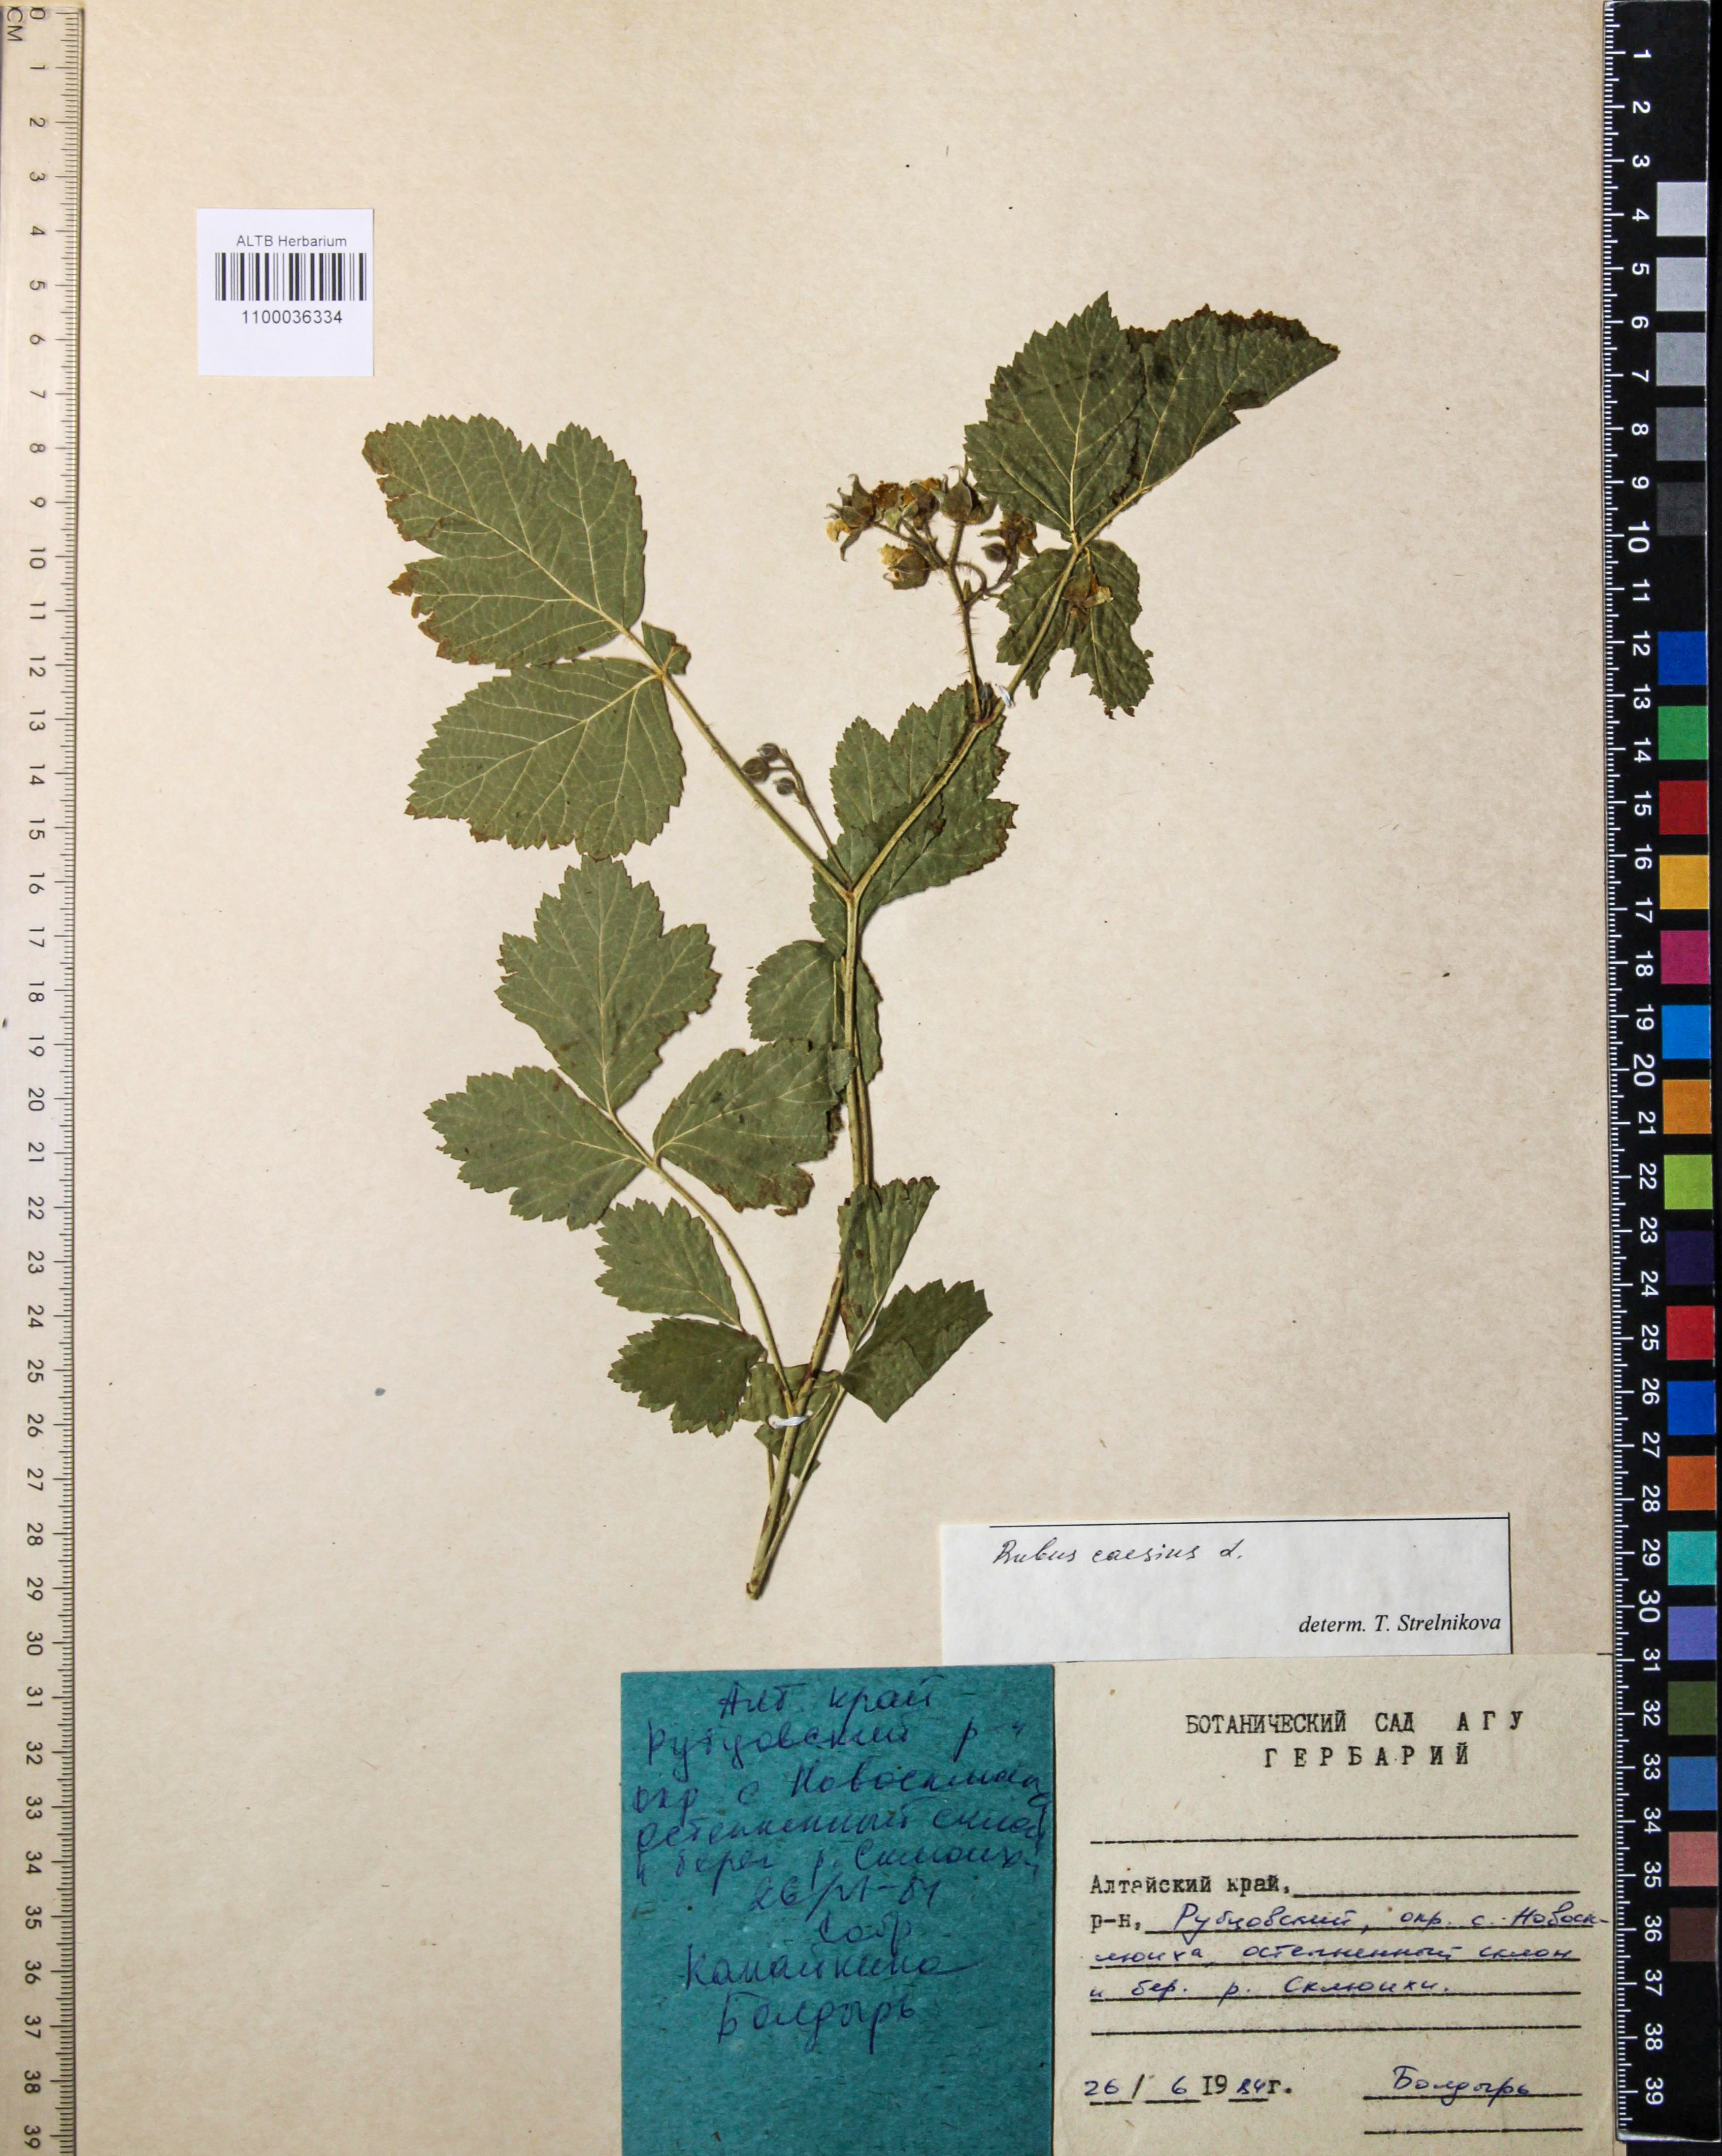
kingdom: Plantae
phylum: Tracheophyta
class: Magnoliopsida
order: Rosales
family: Rosaceae
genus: Rubus
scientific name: Rubus caesius
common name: Dewberry
